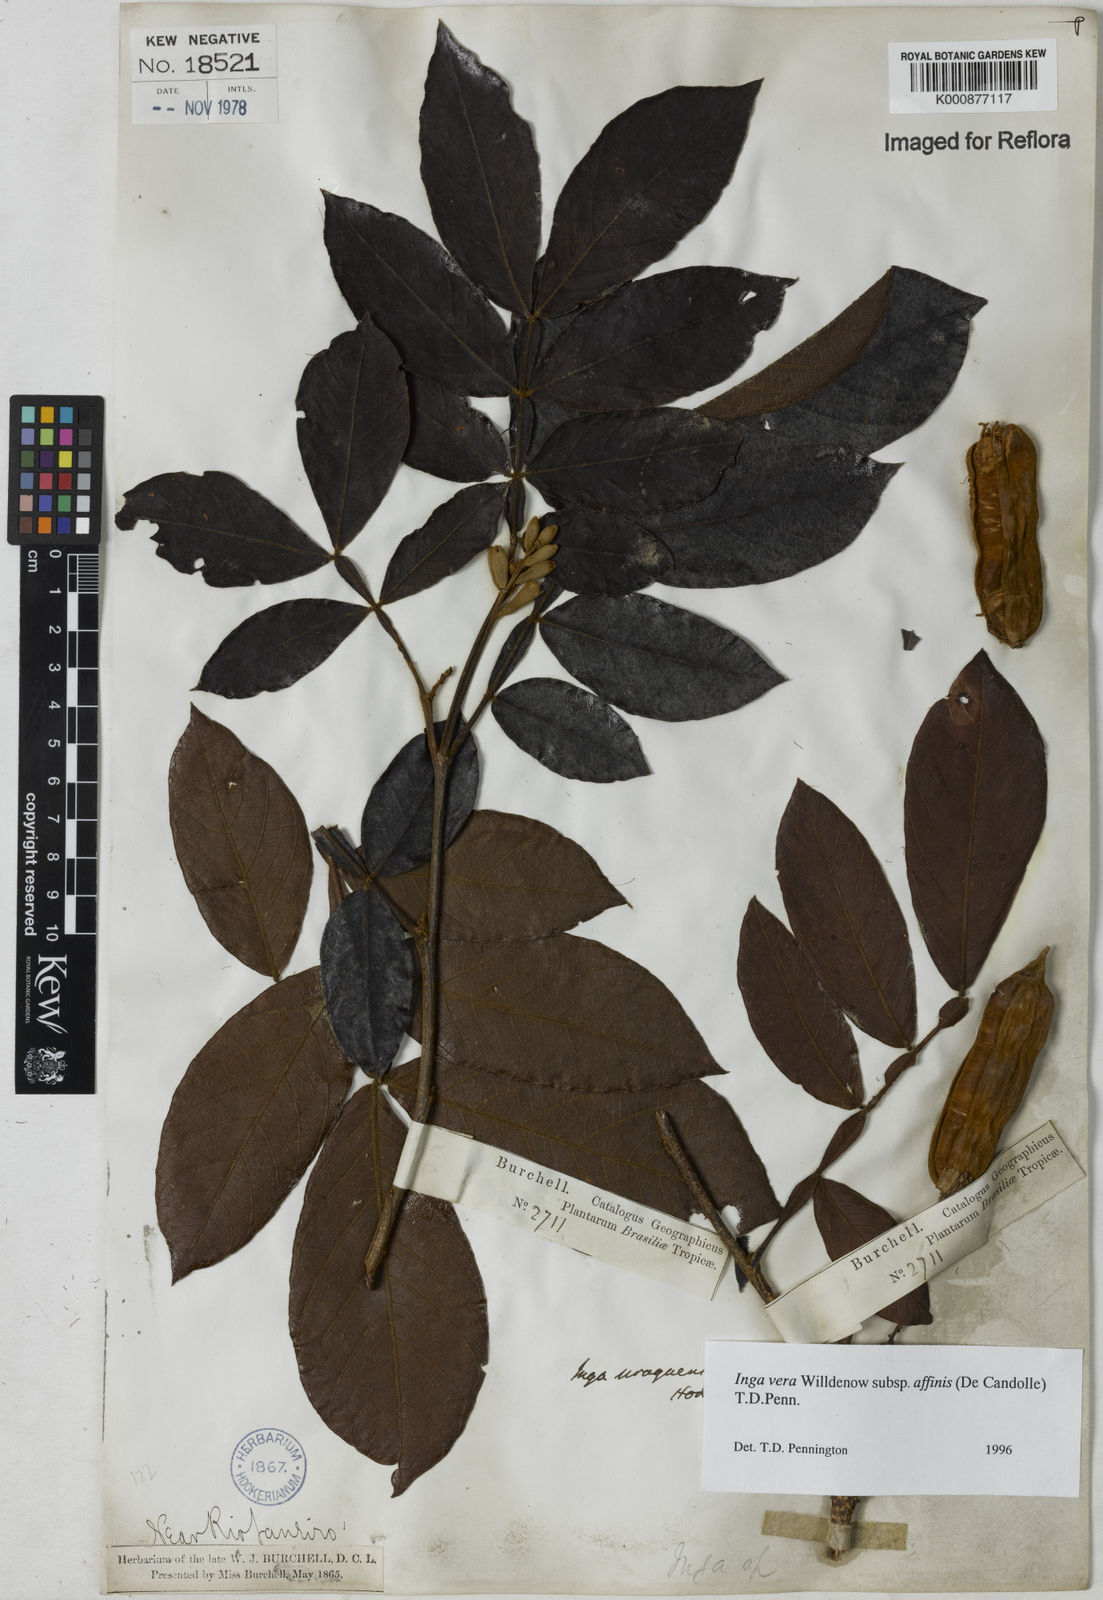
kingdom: Plantae
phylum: Tracheophyta
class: Magnoliopsida
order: Fabales
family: Fabaceae
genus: Inga
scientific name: Inga affinis
